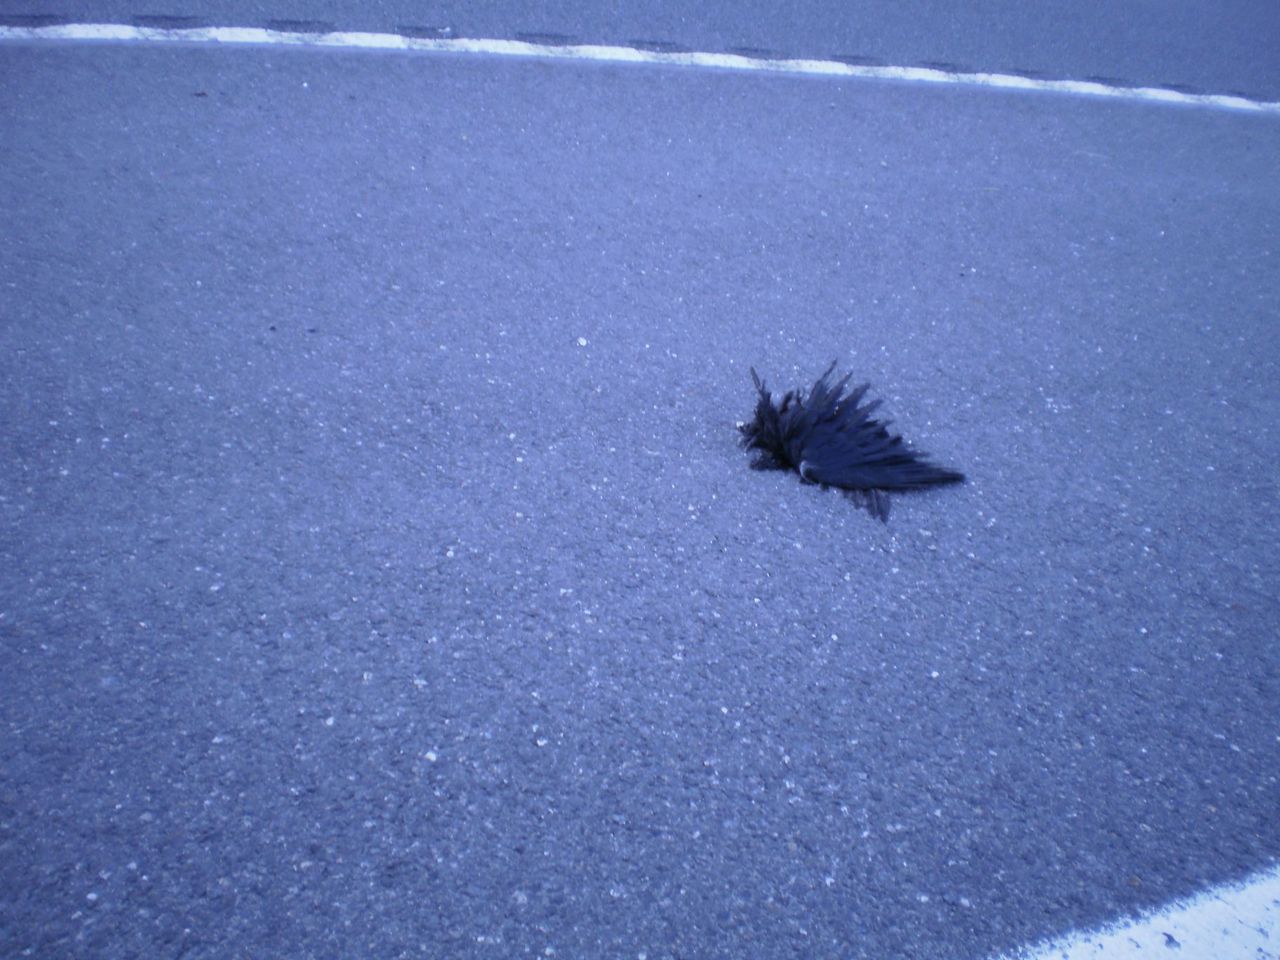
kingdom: Animalia
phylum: Chordata
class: Aves
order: Passeriformes
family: Corvidae
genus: Corvus
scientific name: Corvus
